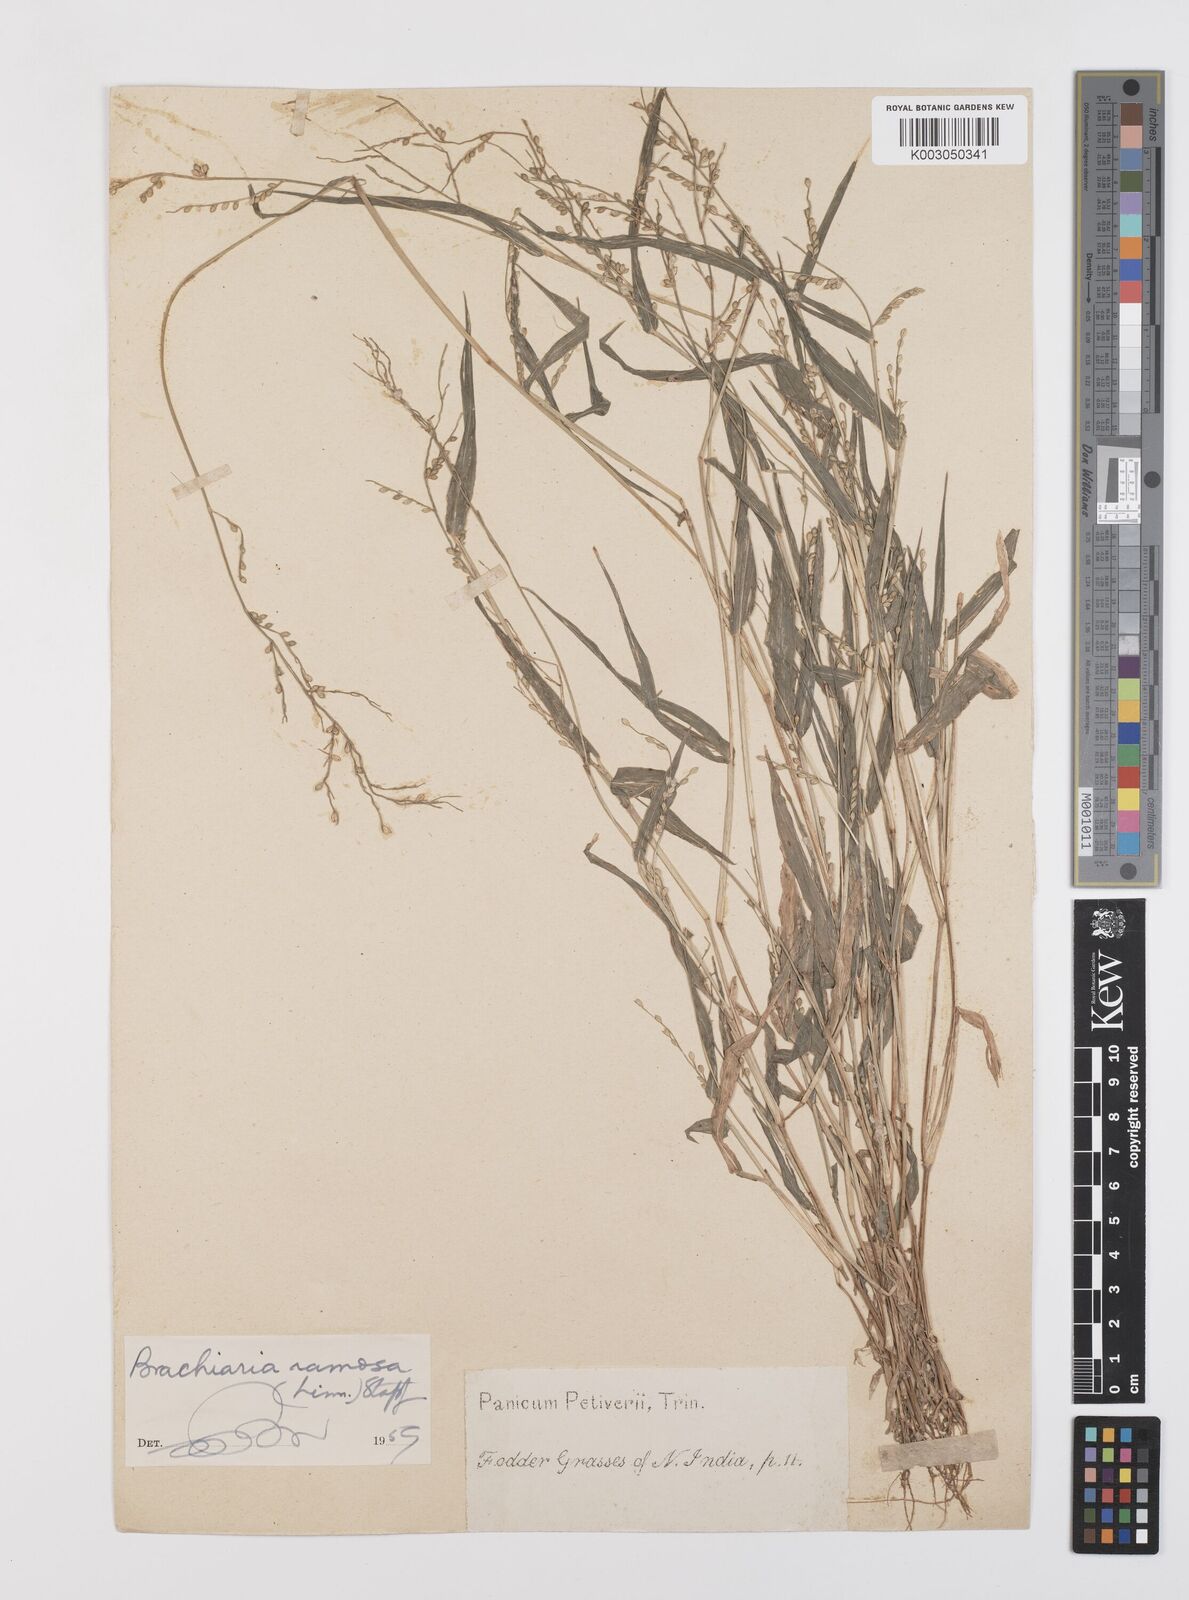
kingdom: Plantae
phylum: Tracheophyta
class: Liliopsida
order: Poales
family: Poaceae
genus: Urochloa
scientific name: Urochloa ramosa
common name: Browntop millet
